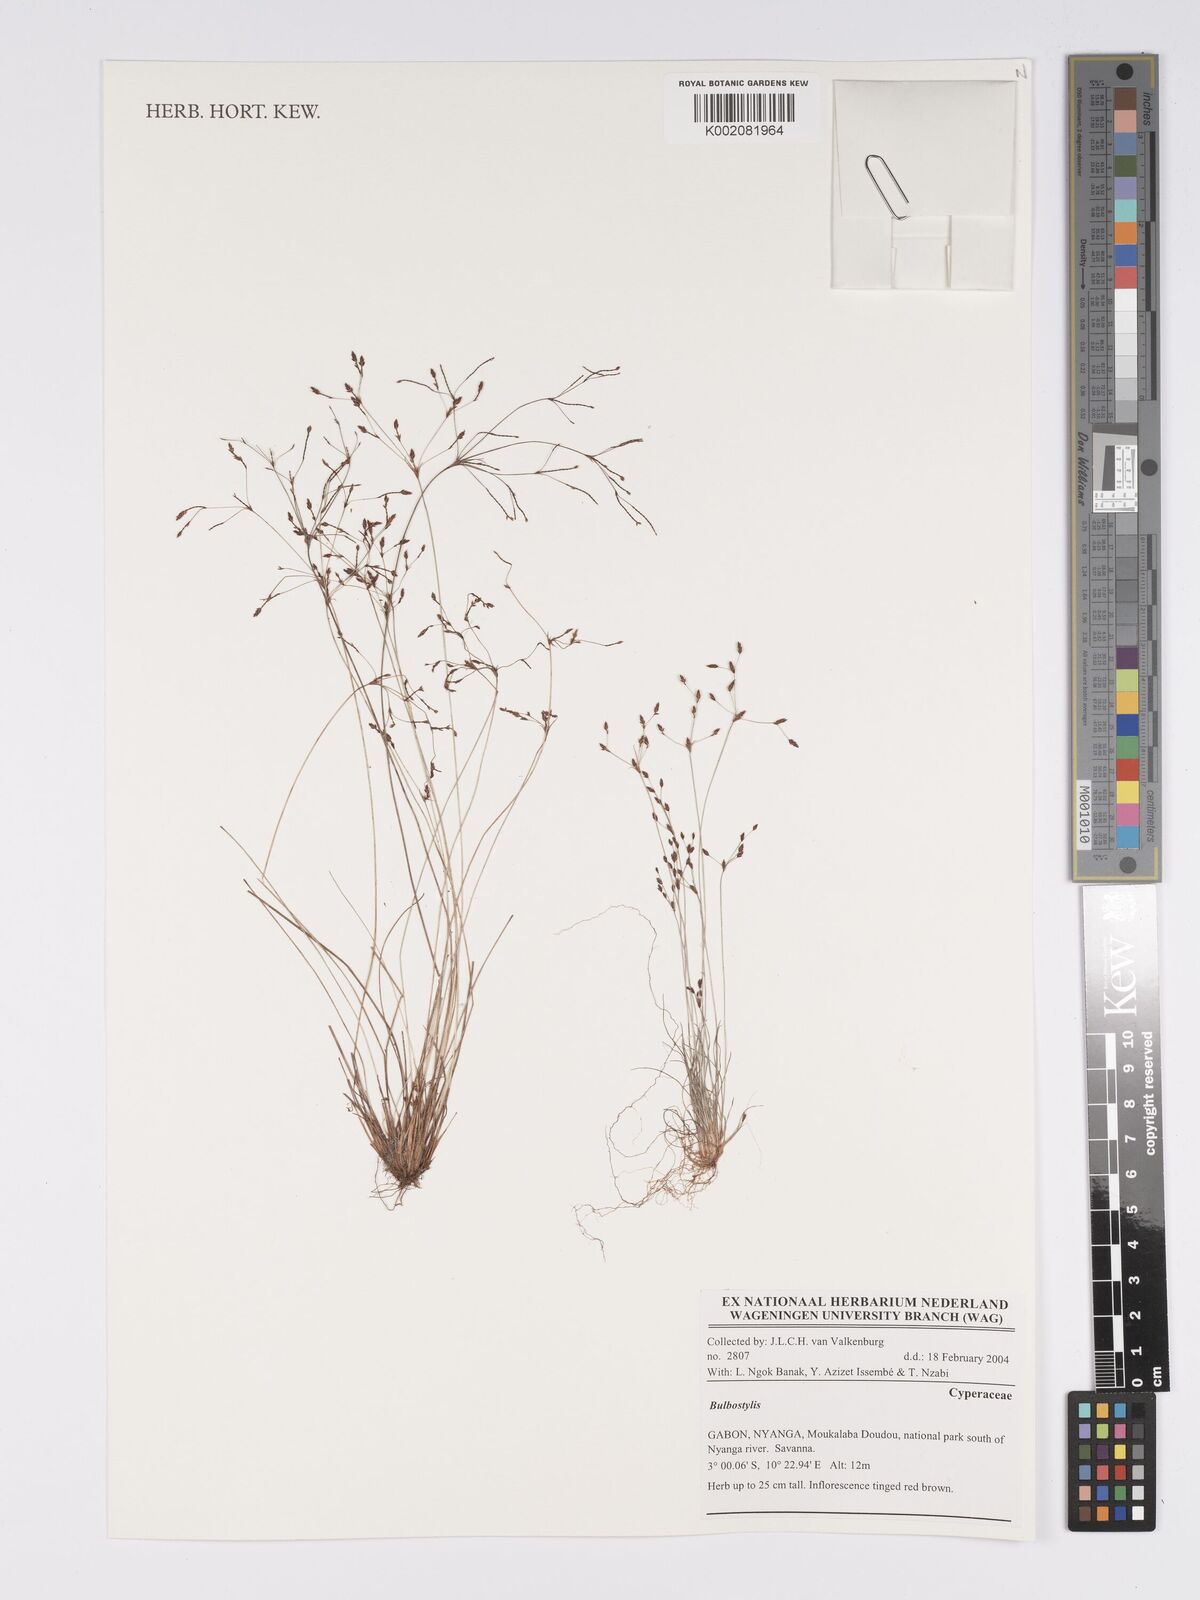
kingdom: Plantae
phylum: Tracheophyta
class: Magnoliopsida
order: Asterales
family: Asteraceae
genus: Bulbostylis
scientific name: Bulbostylis
